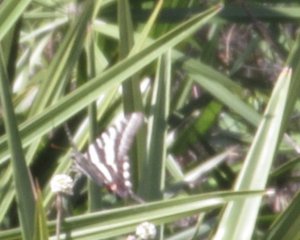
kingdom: Animalia
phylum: Arthropoda
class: Insecta
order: Lepidoptera
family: Papilionidae
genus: Protographium
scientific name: Protographium marcellus
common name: Zebra Swallowtail
